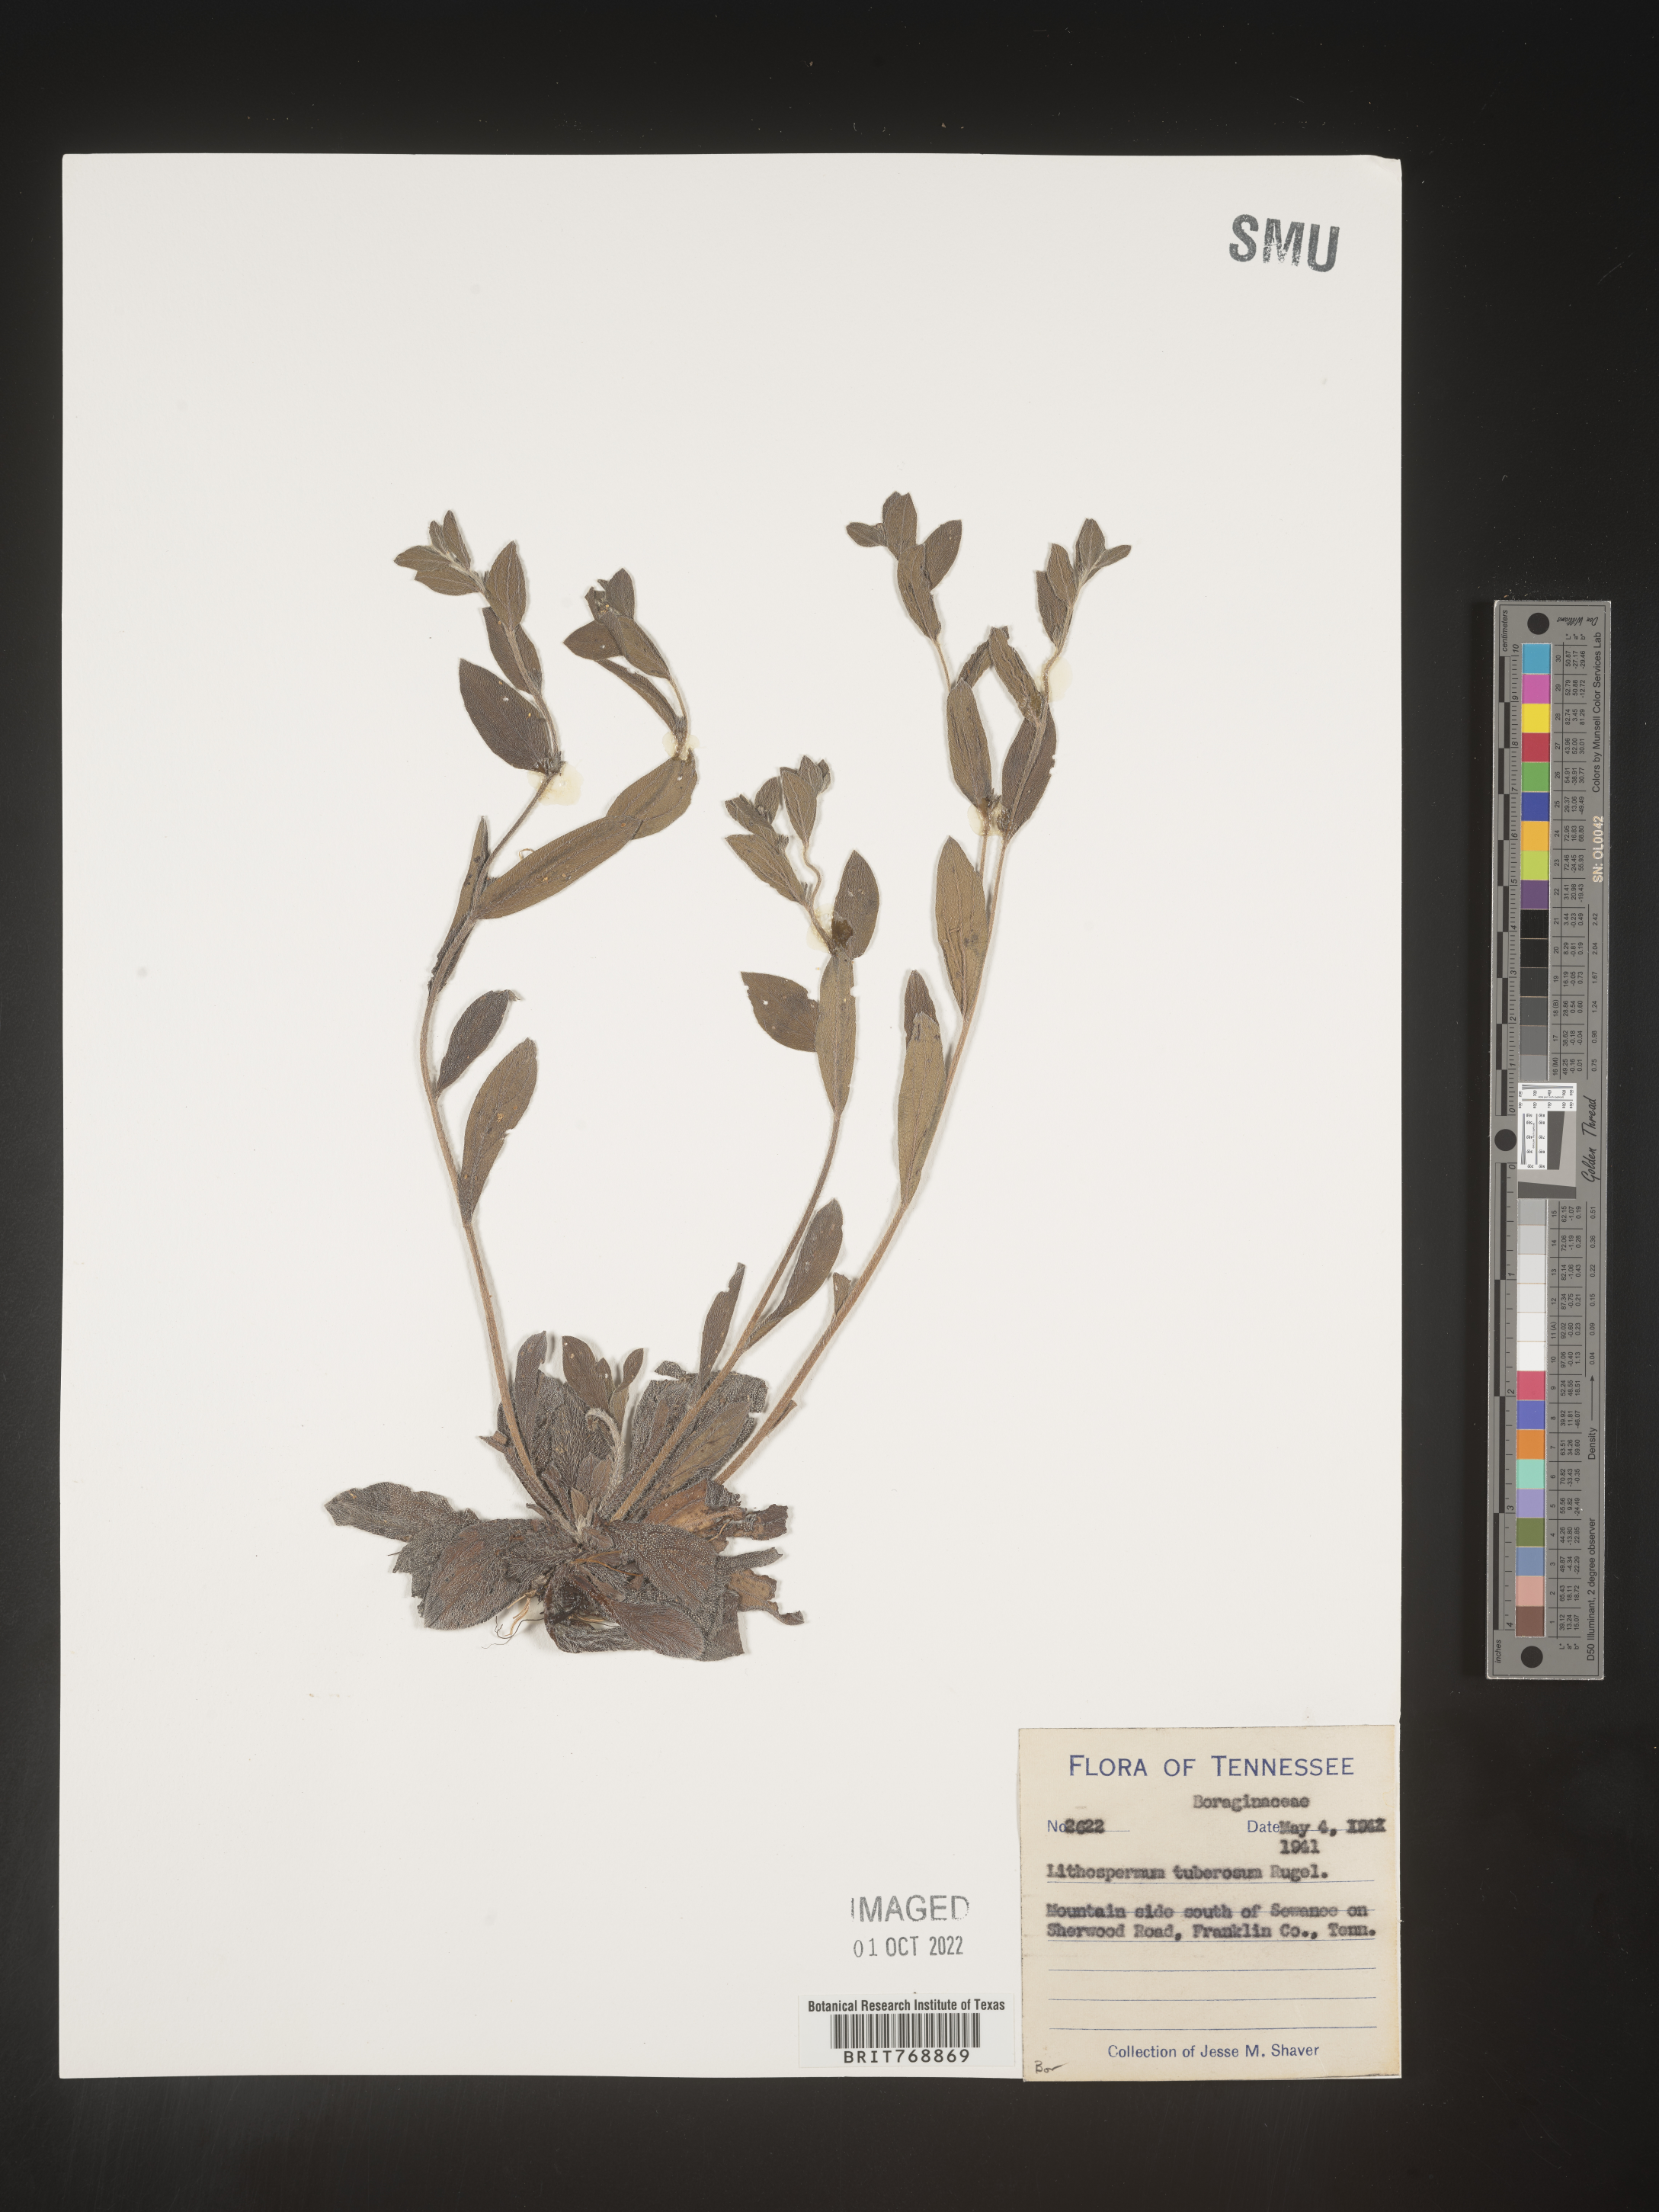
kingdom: Plantae
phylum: Tracheophyta
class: Magnoliopsida
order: Boraginales
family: Boraginaceae
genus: Lithospermum
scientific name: Lithospermum
